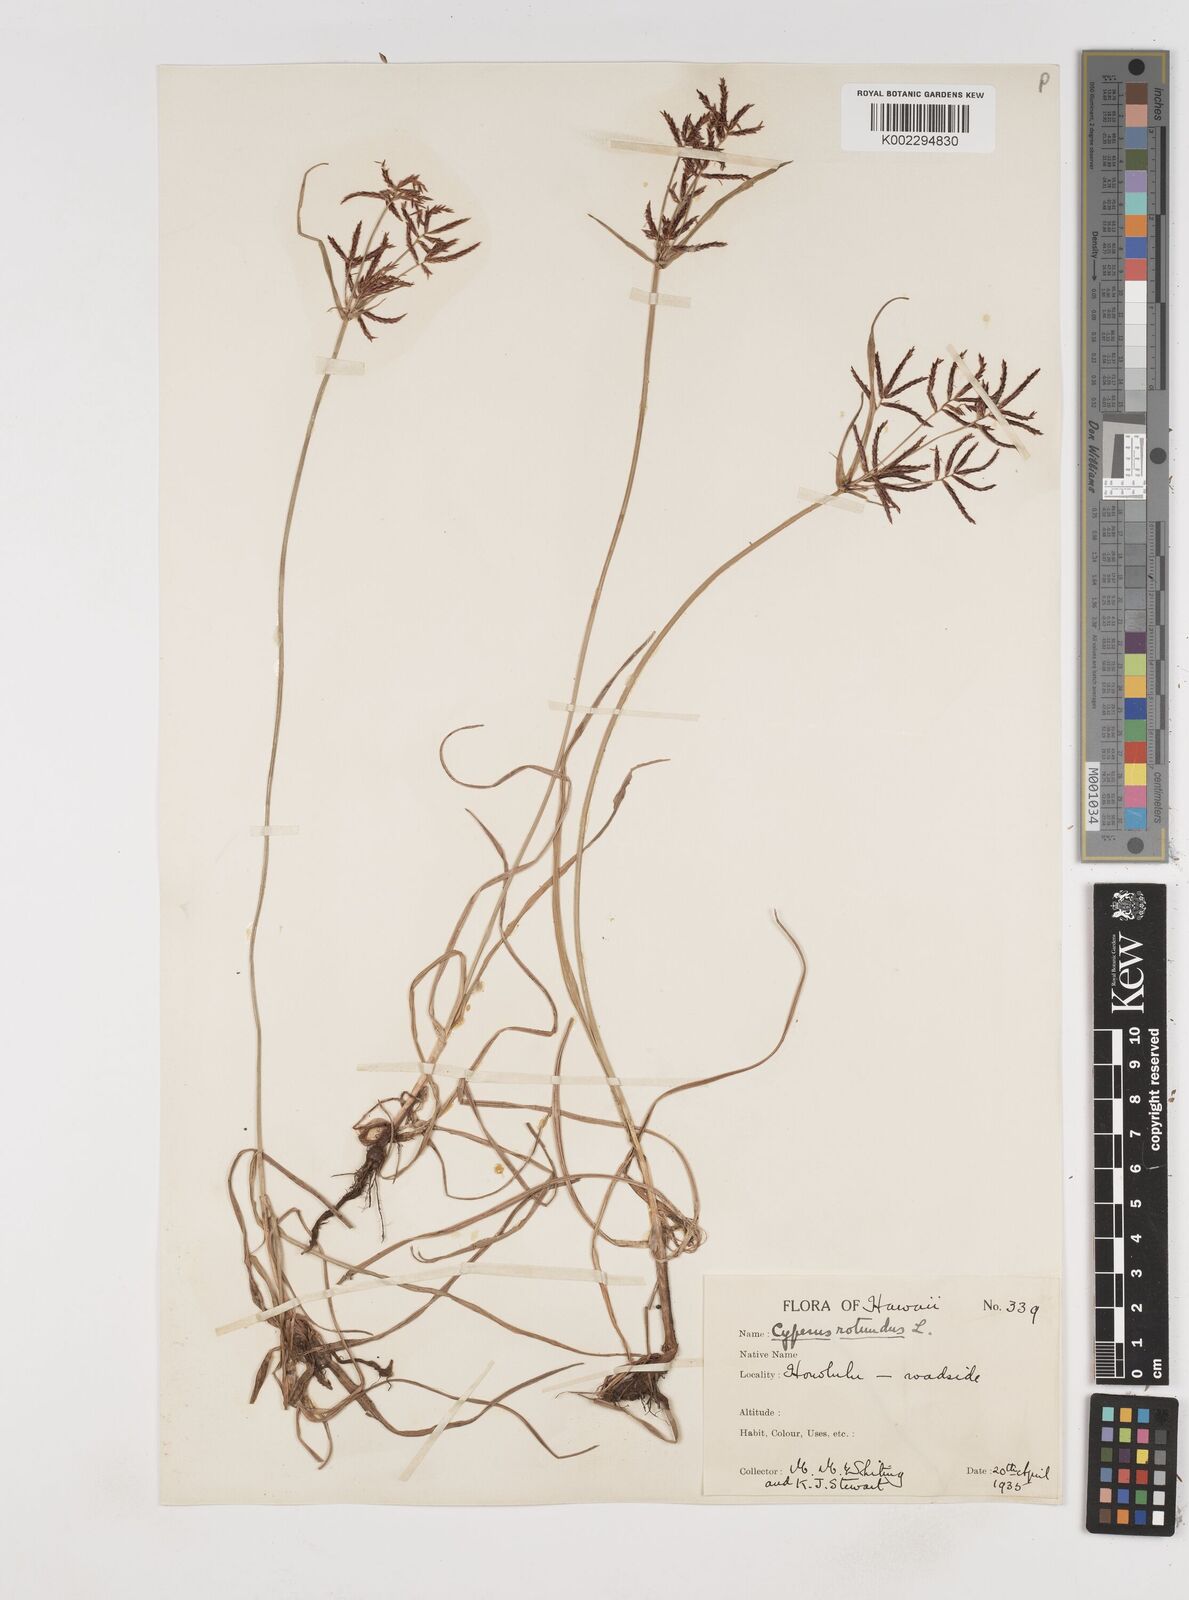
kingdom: Plantae
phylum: Tracheophyta
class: Liliopsida
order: Poales
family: Cyperaceae
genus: Cyperus
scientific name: Cyperus rotundus
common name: Nutgrass
